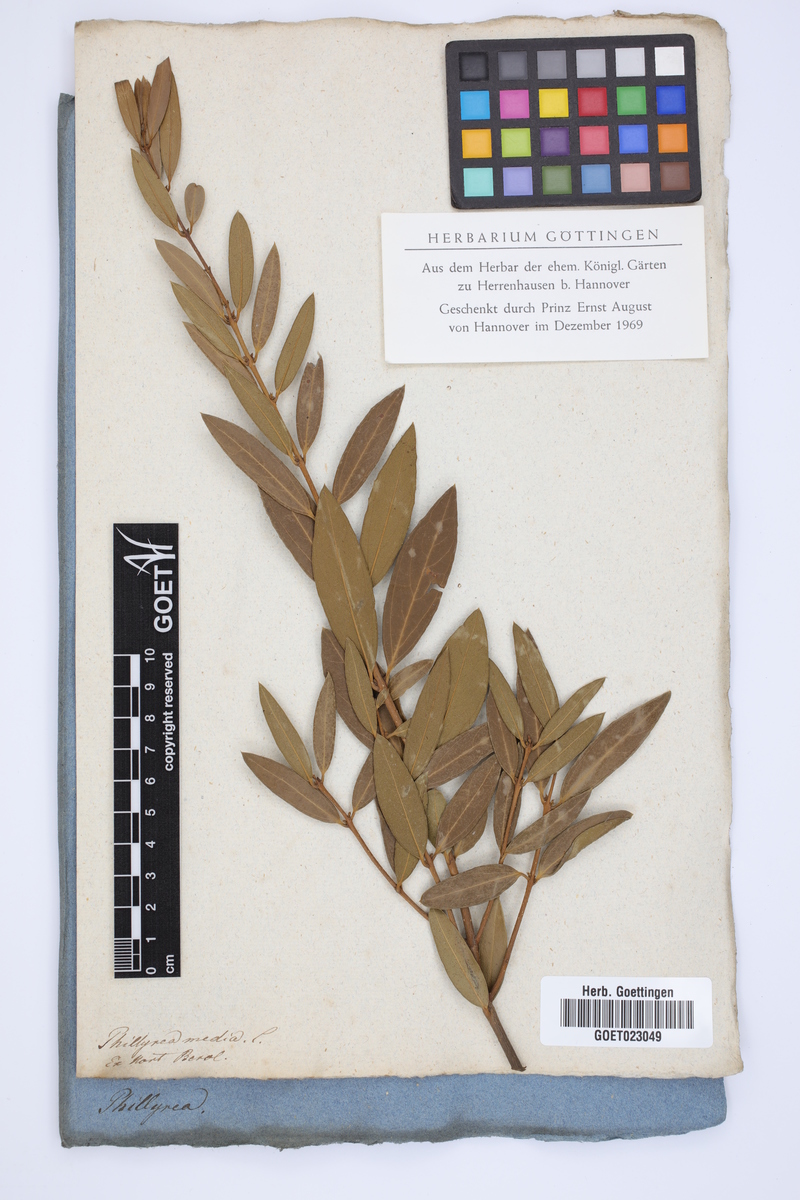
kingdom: Plantae
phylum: Tracheophyta
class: Magnoliopsida
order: Lamiales
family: Oleaceae
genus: Phillyrea
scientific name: Phillyrea latifolia
